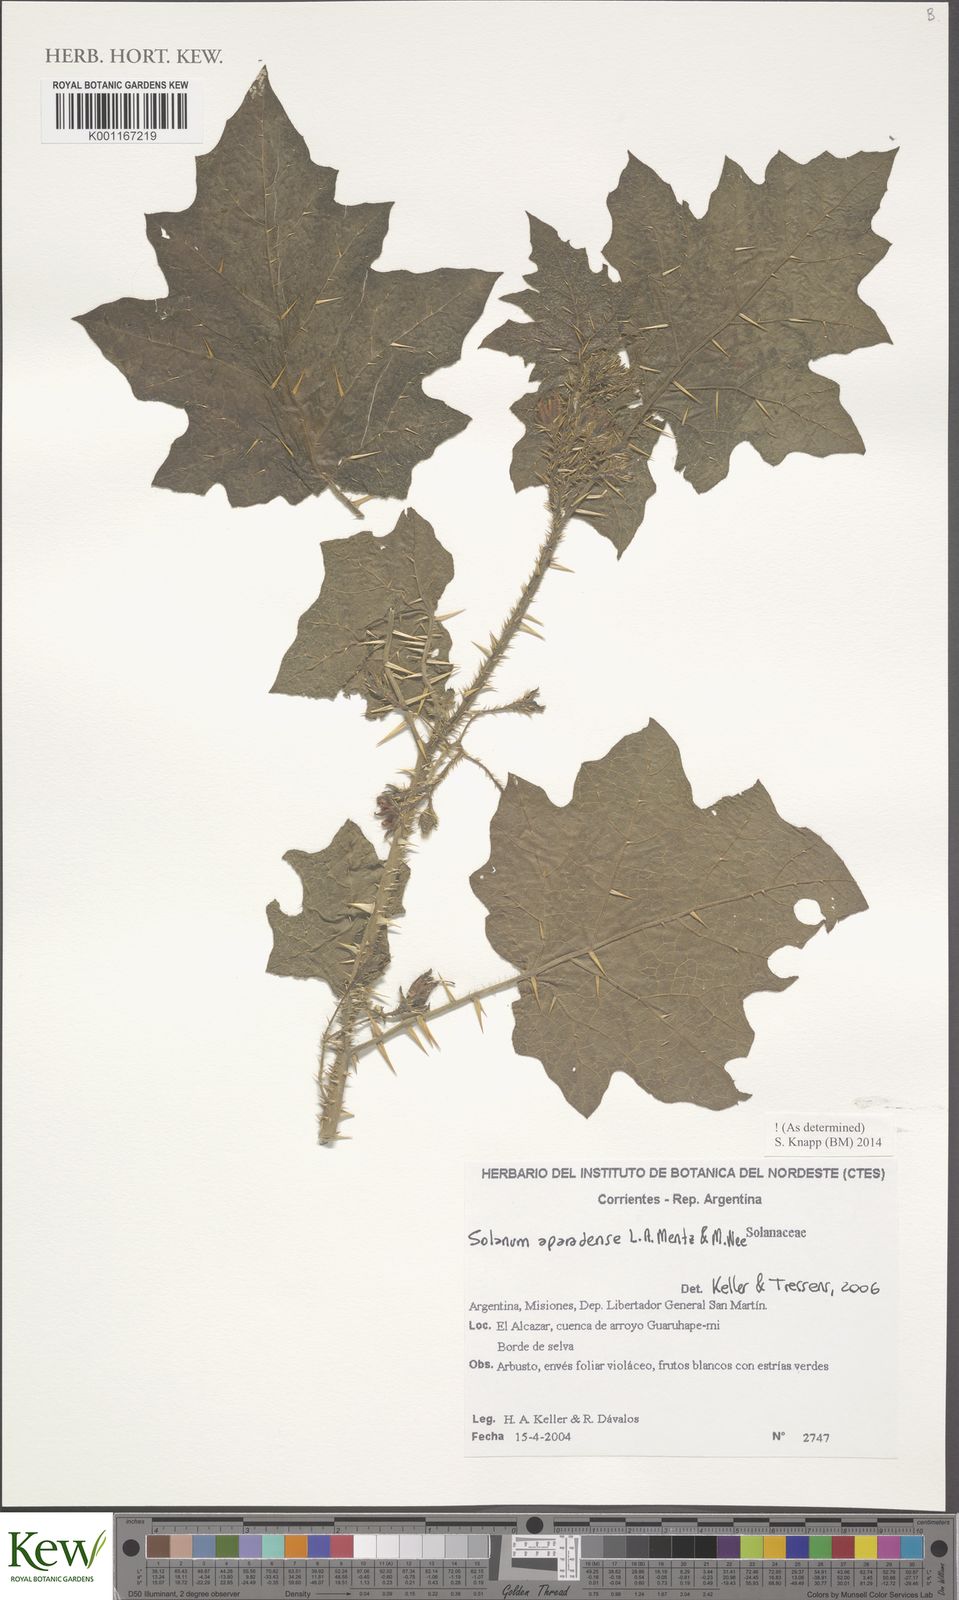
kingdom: Plantae
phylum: Tracheophyta
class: Magnoliopsida
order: Solanales
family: Solanaceae
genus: Solanum
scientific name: Solanum aparadense
